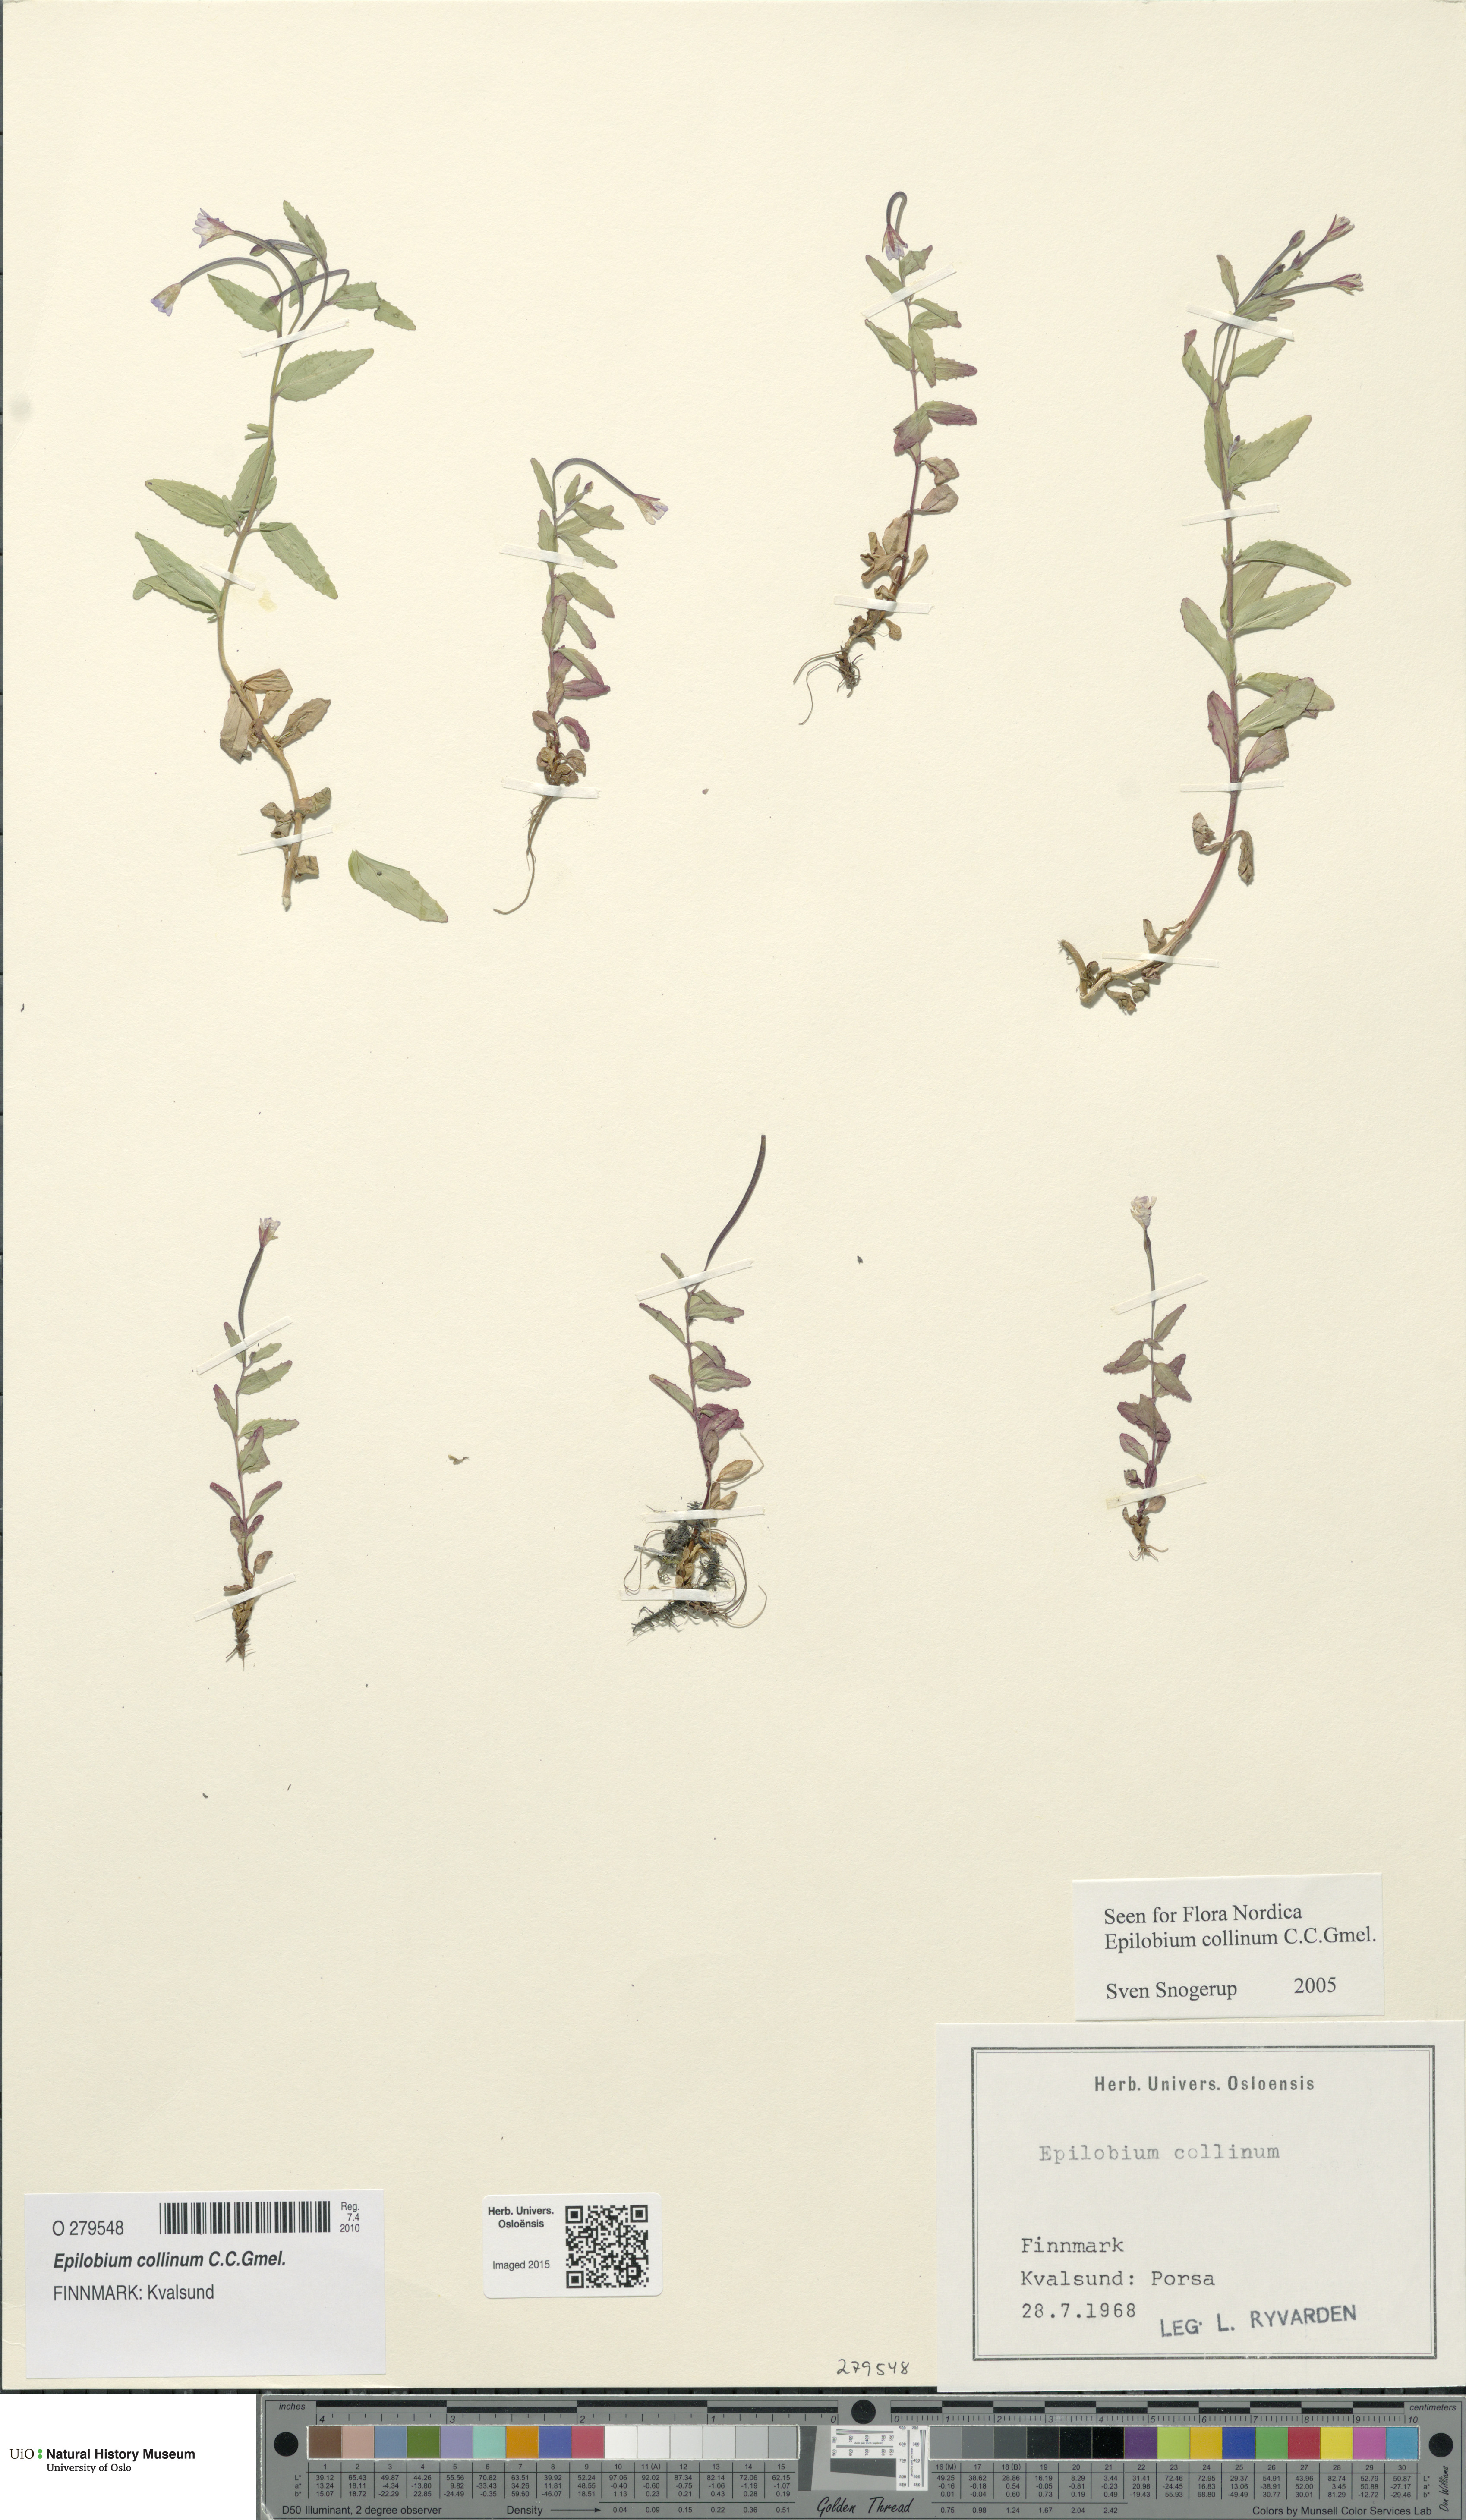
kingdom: Plantae
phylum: Tracheophyta
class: Magnoliopsida
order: Myrtales
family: Onagraceae
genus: Epilobium
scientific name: Epilobium collinum
